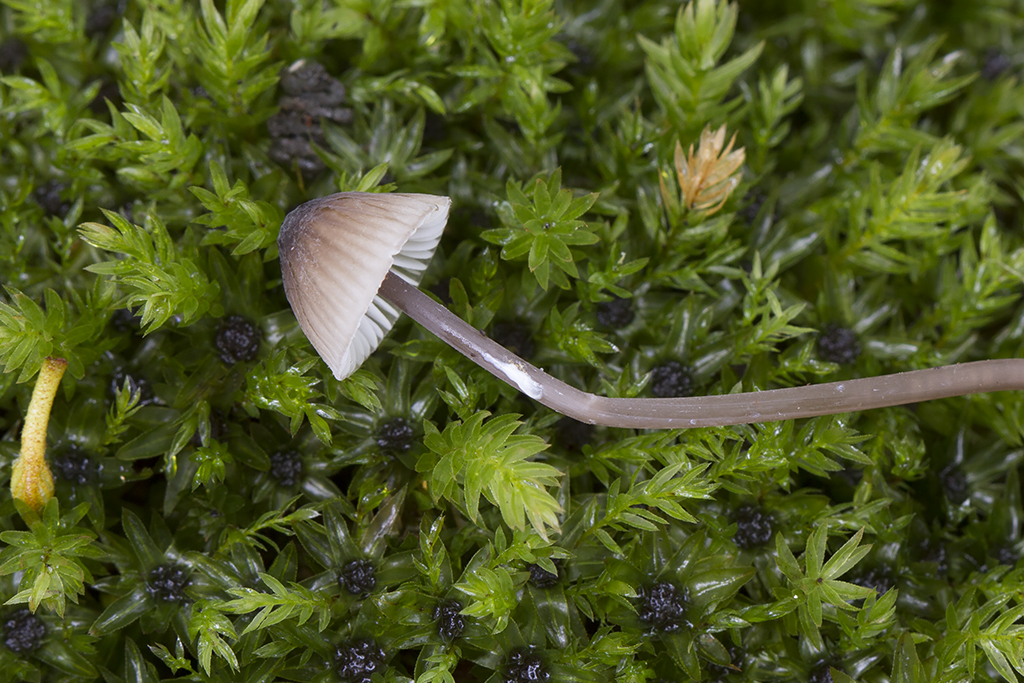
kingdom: Fungi
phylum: Basidiomycota
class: Agaricomycetes
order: Agaricales
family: Mycenaceae
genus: Mycena
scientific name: Mycena galopus
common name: hvidmælket huesvamp
